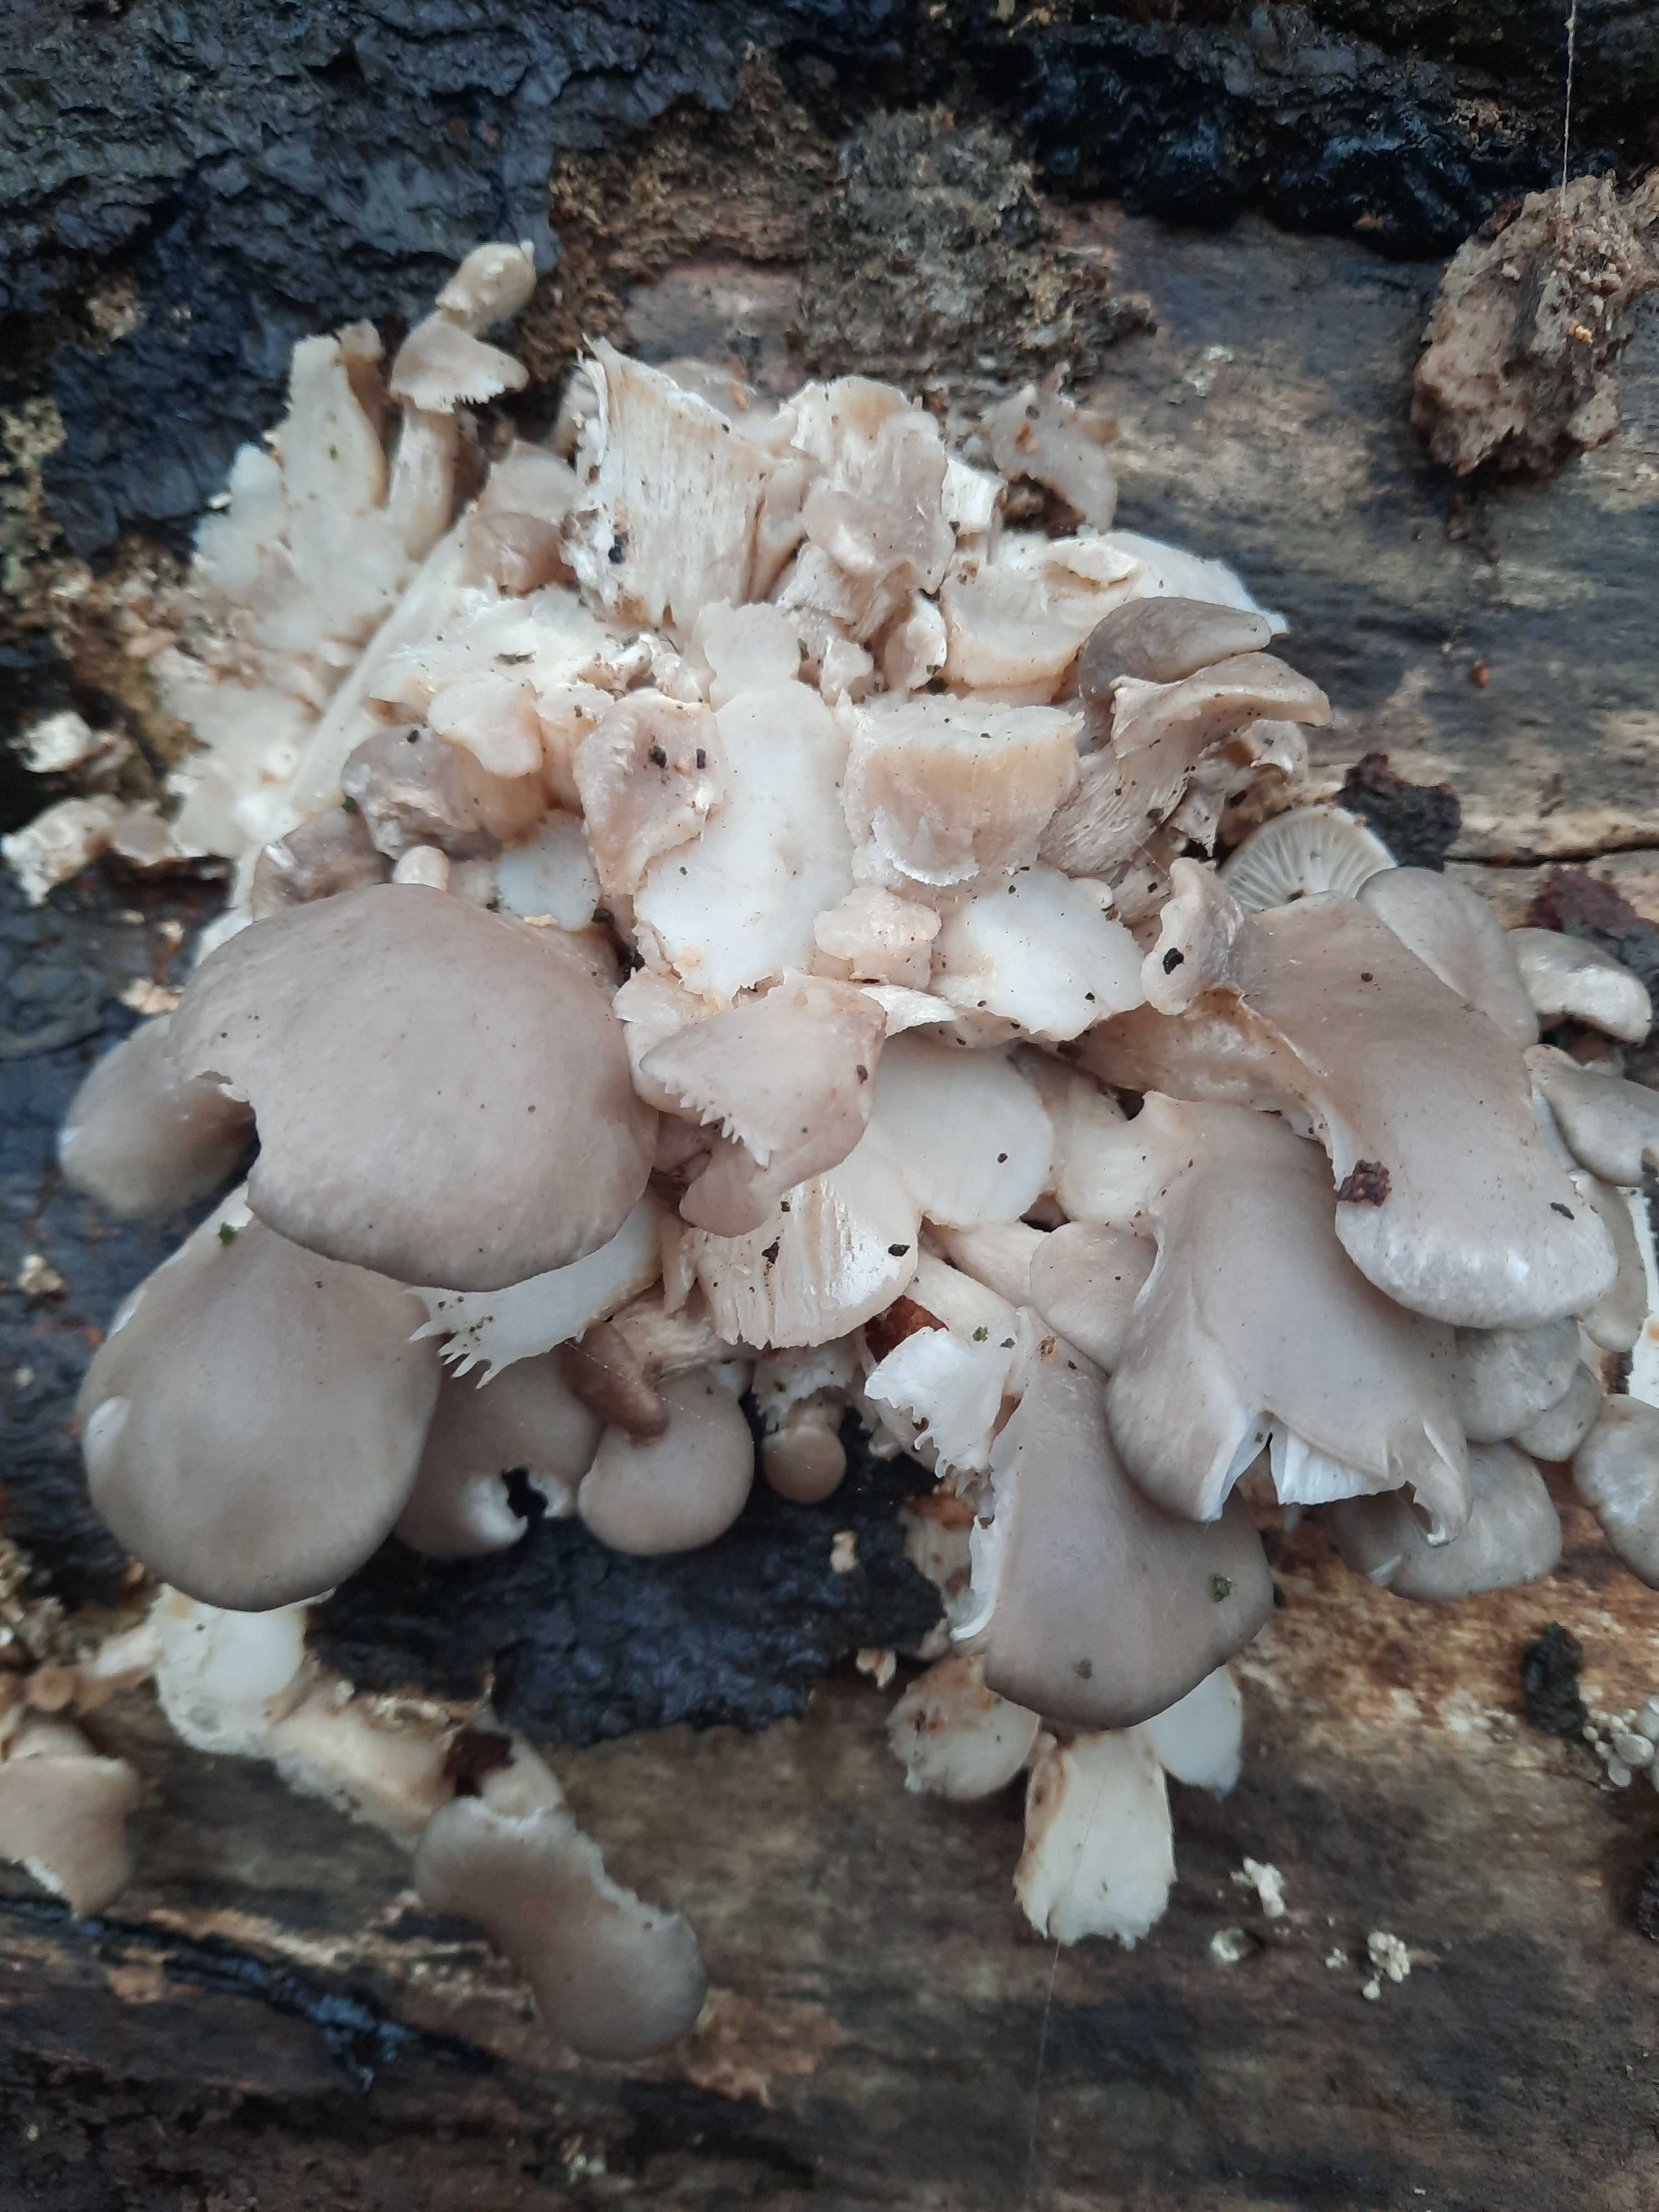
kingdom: Fungi
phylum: Basidiomycota
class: Agaricomycetes
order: Agaricales
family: Pleurotaceae
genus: Pleurotus
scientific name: Pleurotus ostreatus
